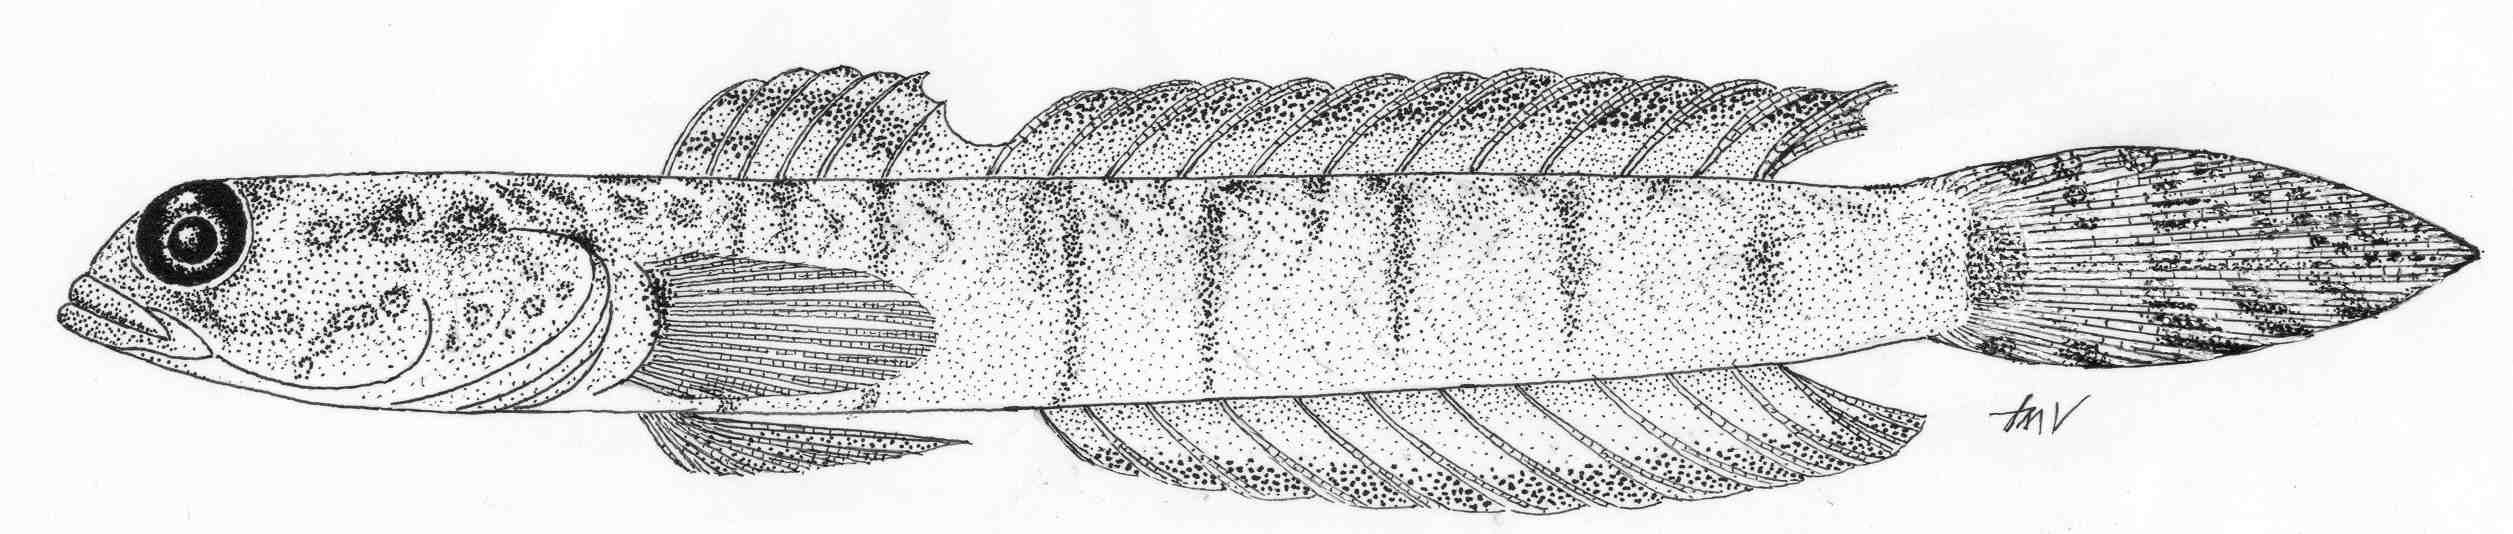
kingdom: Animalia
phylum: Chordata
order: Perciformes
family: Gobiidae
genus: Croilia
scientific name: Croilia mossambica
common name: Burrowing goby
